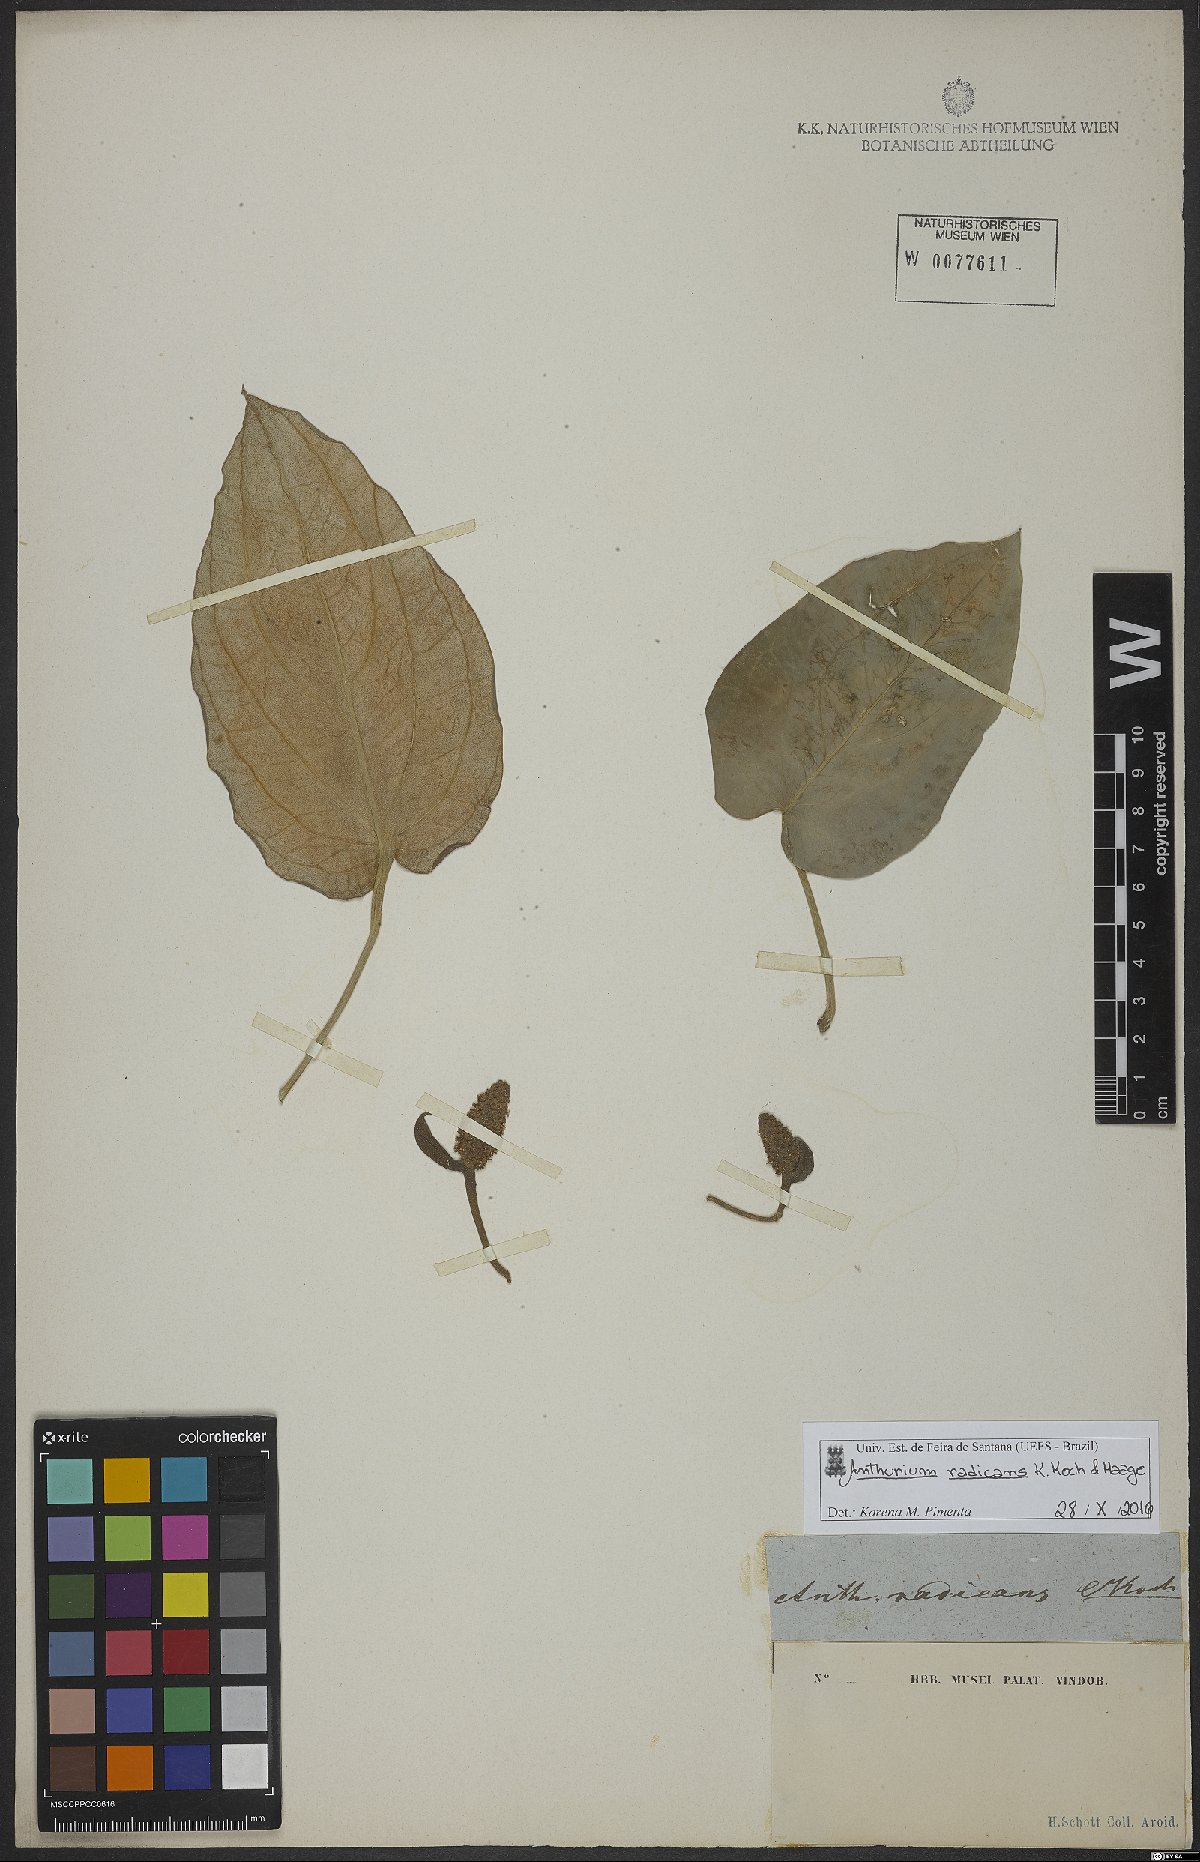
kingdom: Plantae
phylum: Tracheophyta
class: Liliopsida
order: Alismatales
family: Araceae
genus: Anthurium
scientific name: Anthurium radicans
